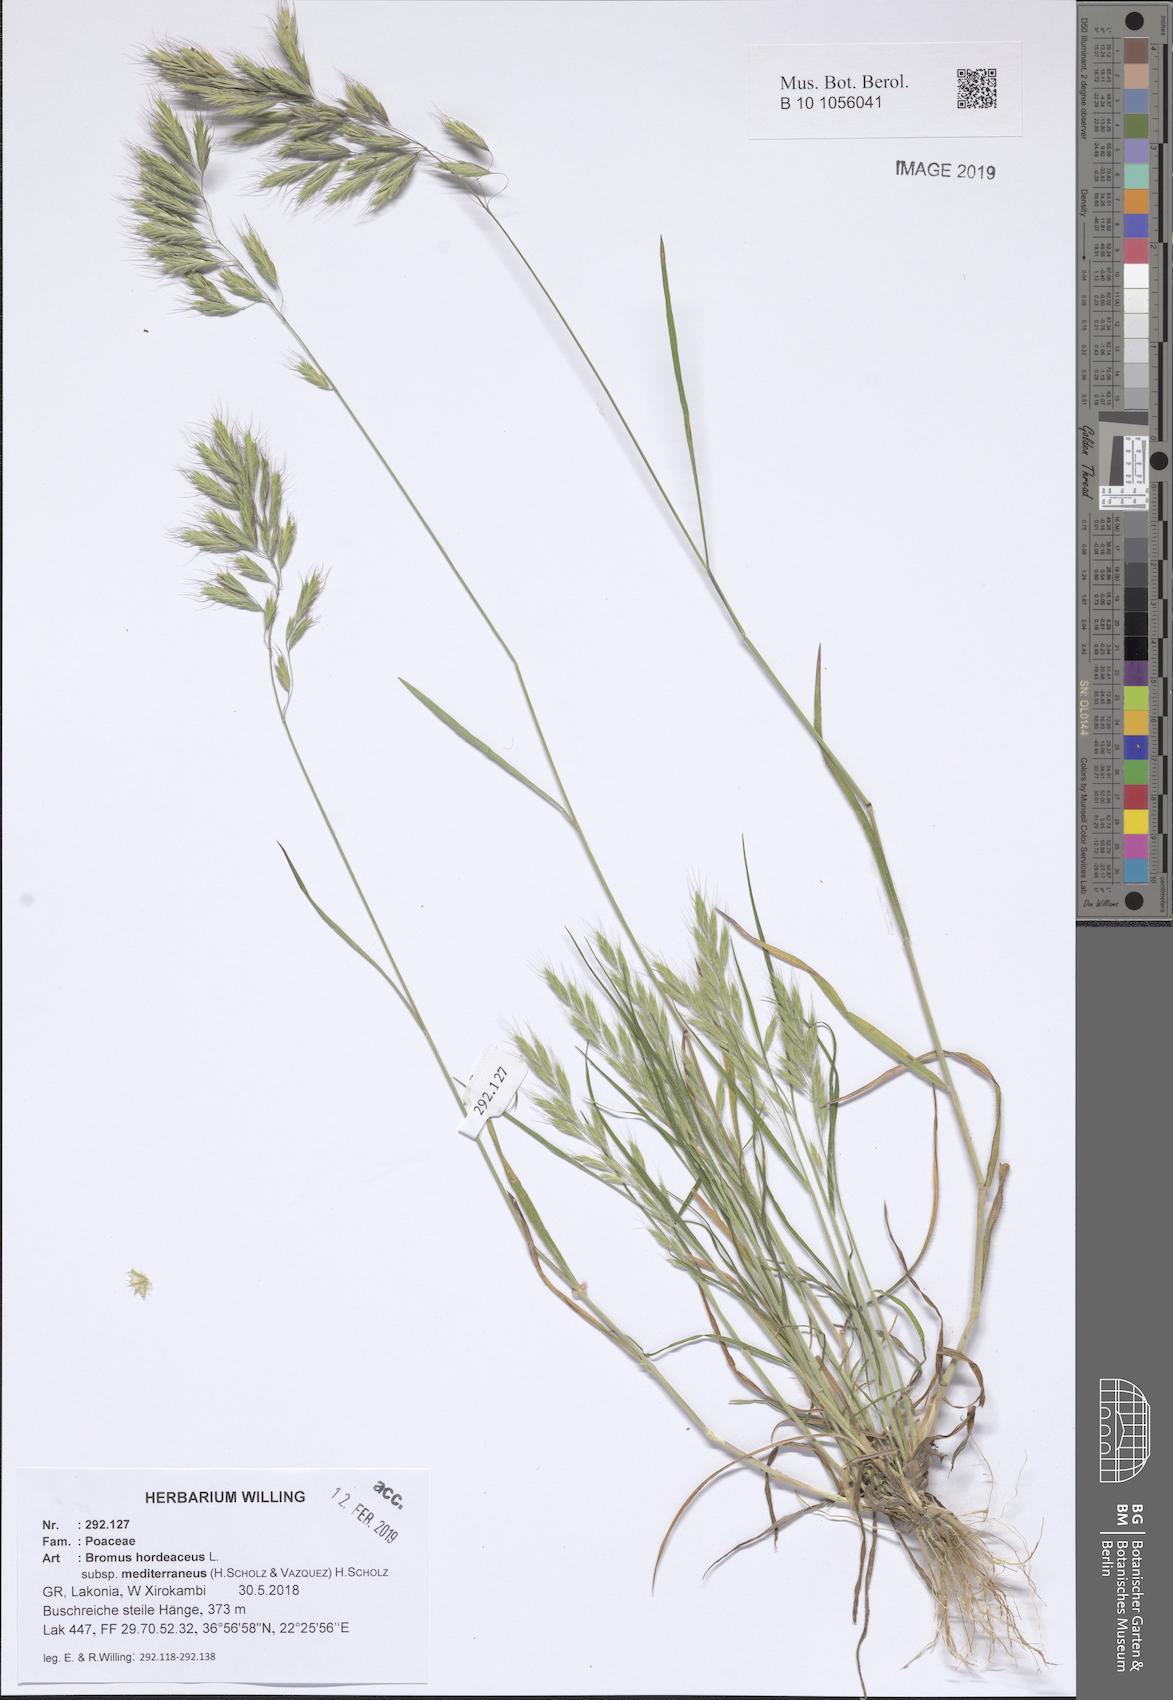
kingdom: Plantae
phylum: Tracheophyta
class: Liliopsida
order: Poales
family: Poaceae
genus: Bromus
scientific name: Bromus hordeaceus
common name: Soft brome
